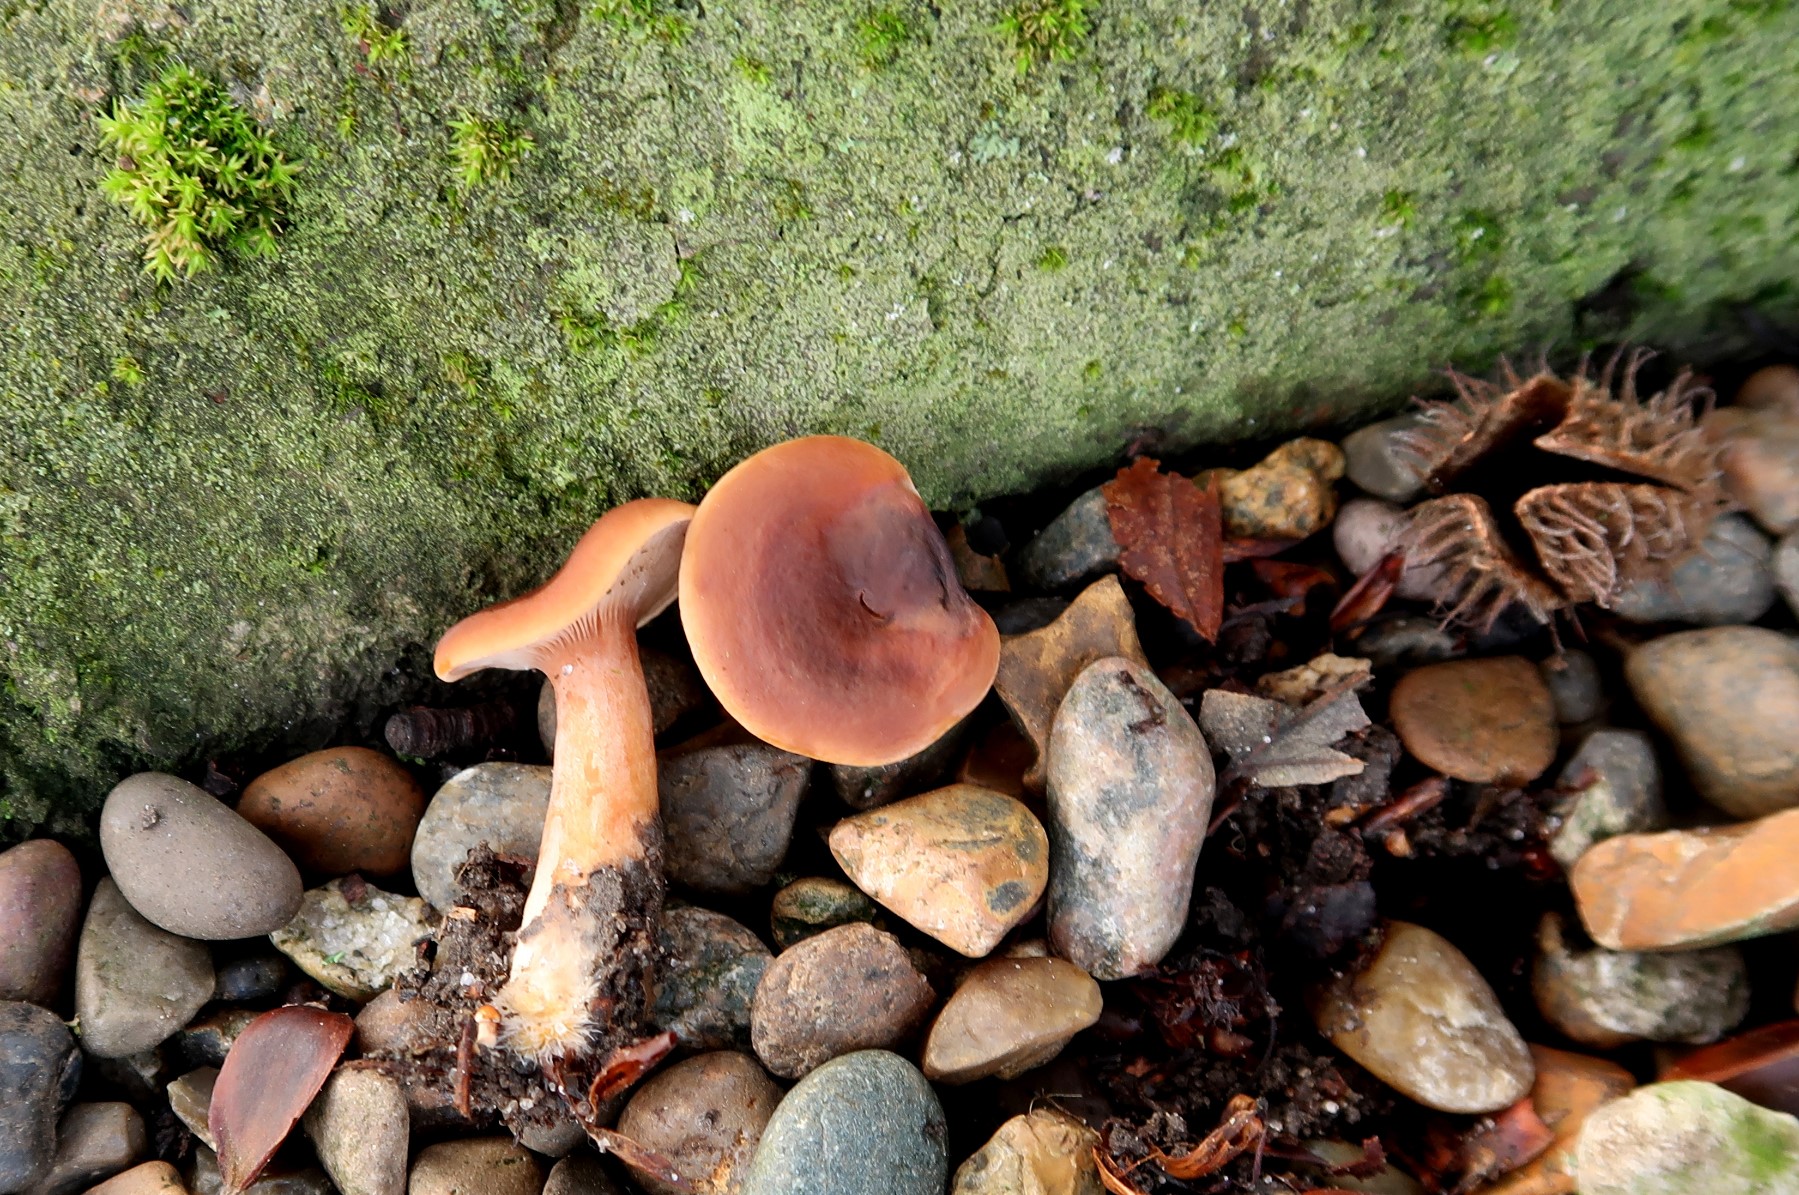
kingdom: Fungi
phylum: Basidiomycota
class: Agaricomycetes
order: Russulales
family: Russulaceae
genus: Lactarius
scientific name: Lactarius fulvissimus
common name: ræve-mælkehat
